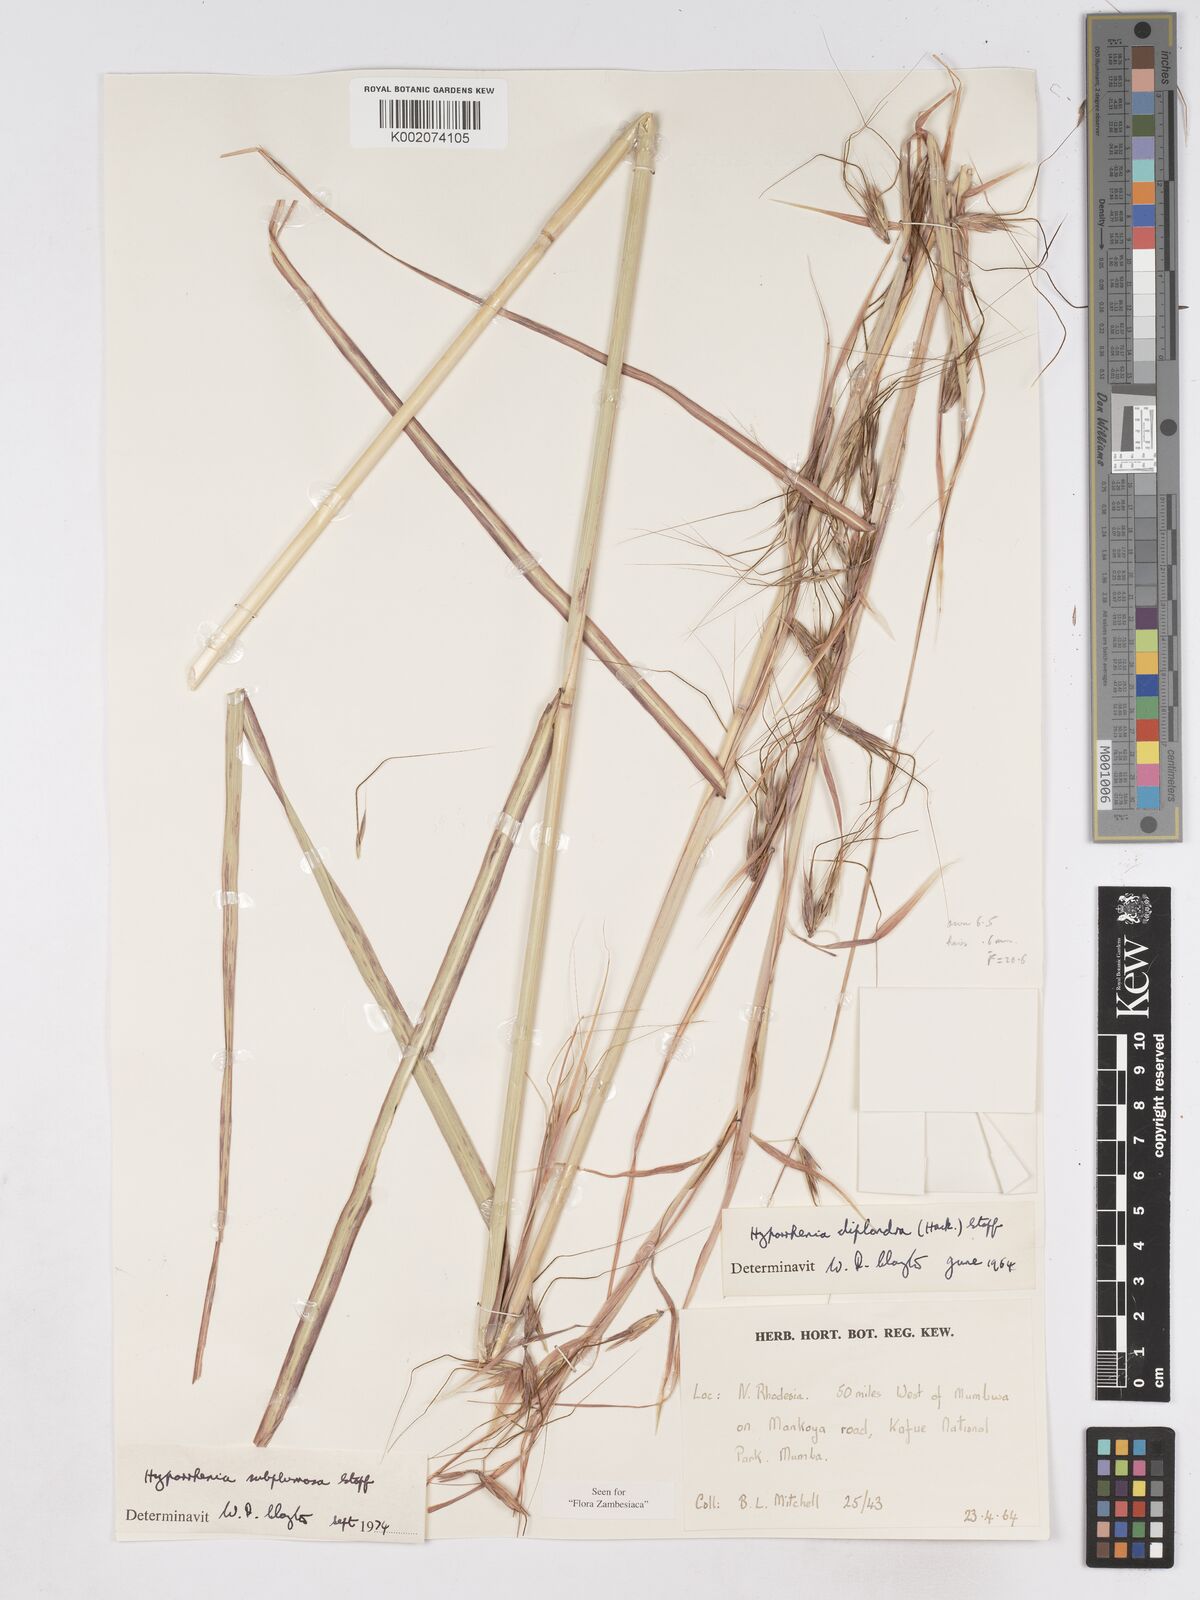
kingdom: Plantae
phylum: Tracheophyta
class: Liliopsida
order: Poales
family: Poaceae
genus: Hyparrhenia
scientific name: Hyparrhenia subplumosa
